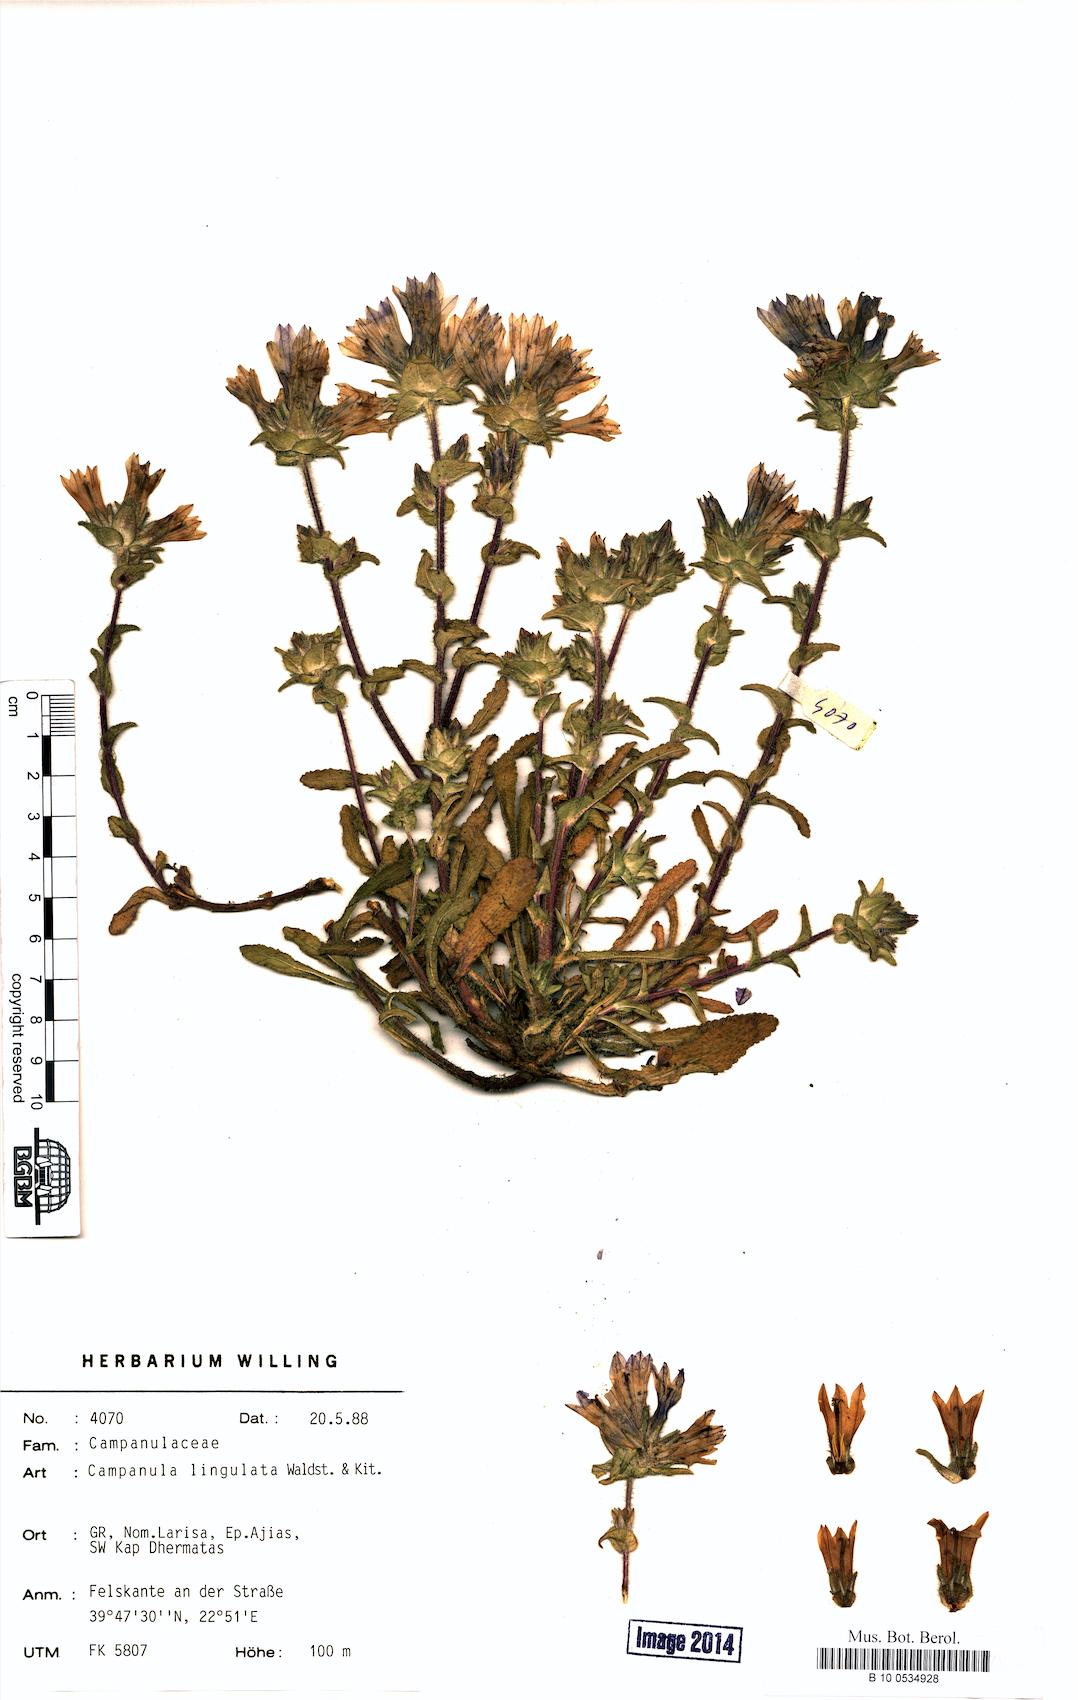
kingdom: Plantae
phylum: Tracheophyta
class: Magnoliopsida
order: Asterales
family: Campanulaceae
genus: Campanula
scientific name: Campanula lingulata
